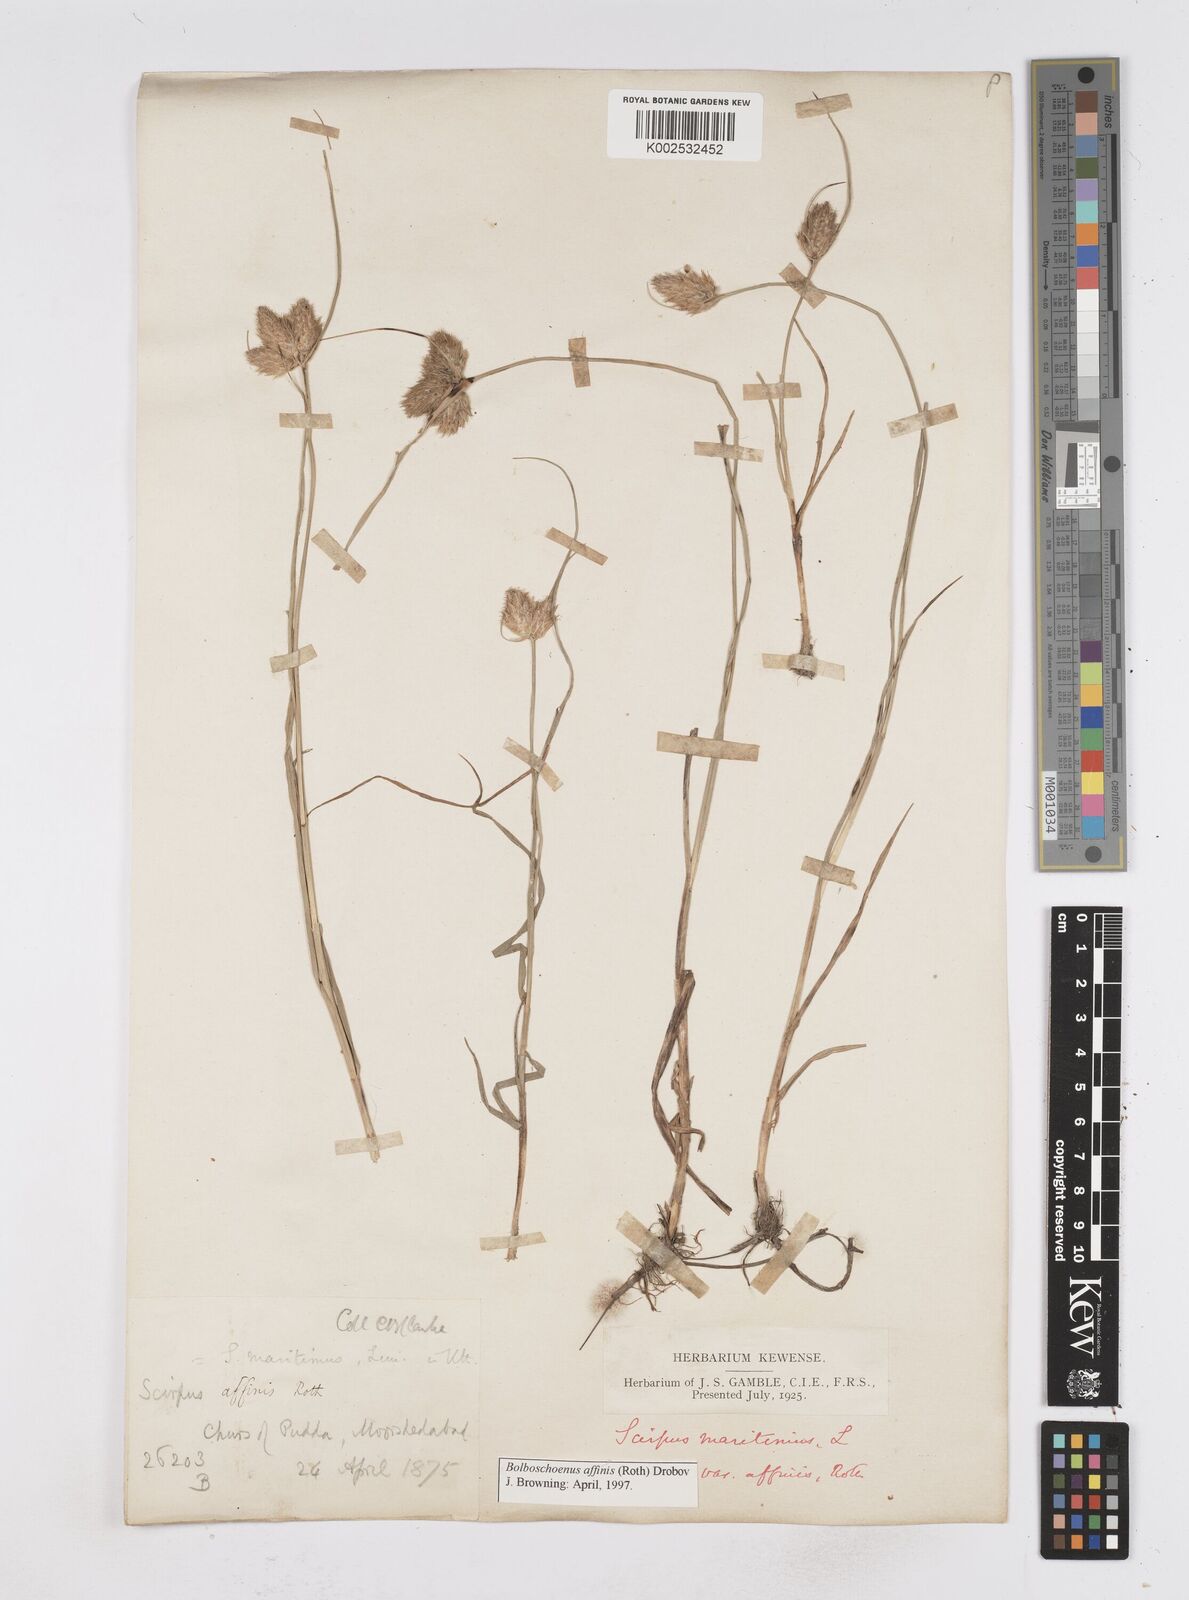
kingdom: Plantae
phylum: Tracheophyta
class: Liliopsida
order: Poales
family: Cyperaceae
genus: Bolboschoenus
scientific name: Bolboschoenus maritimus
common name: Sea club-rush
